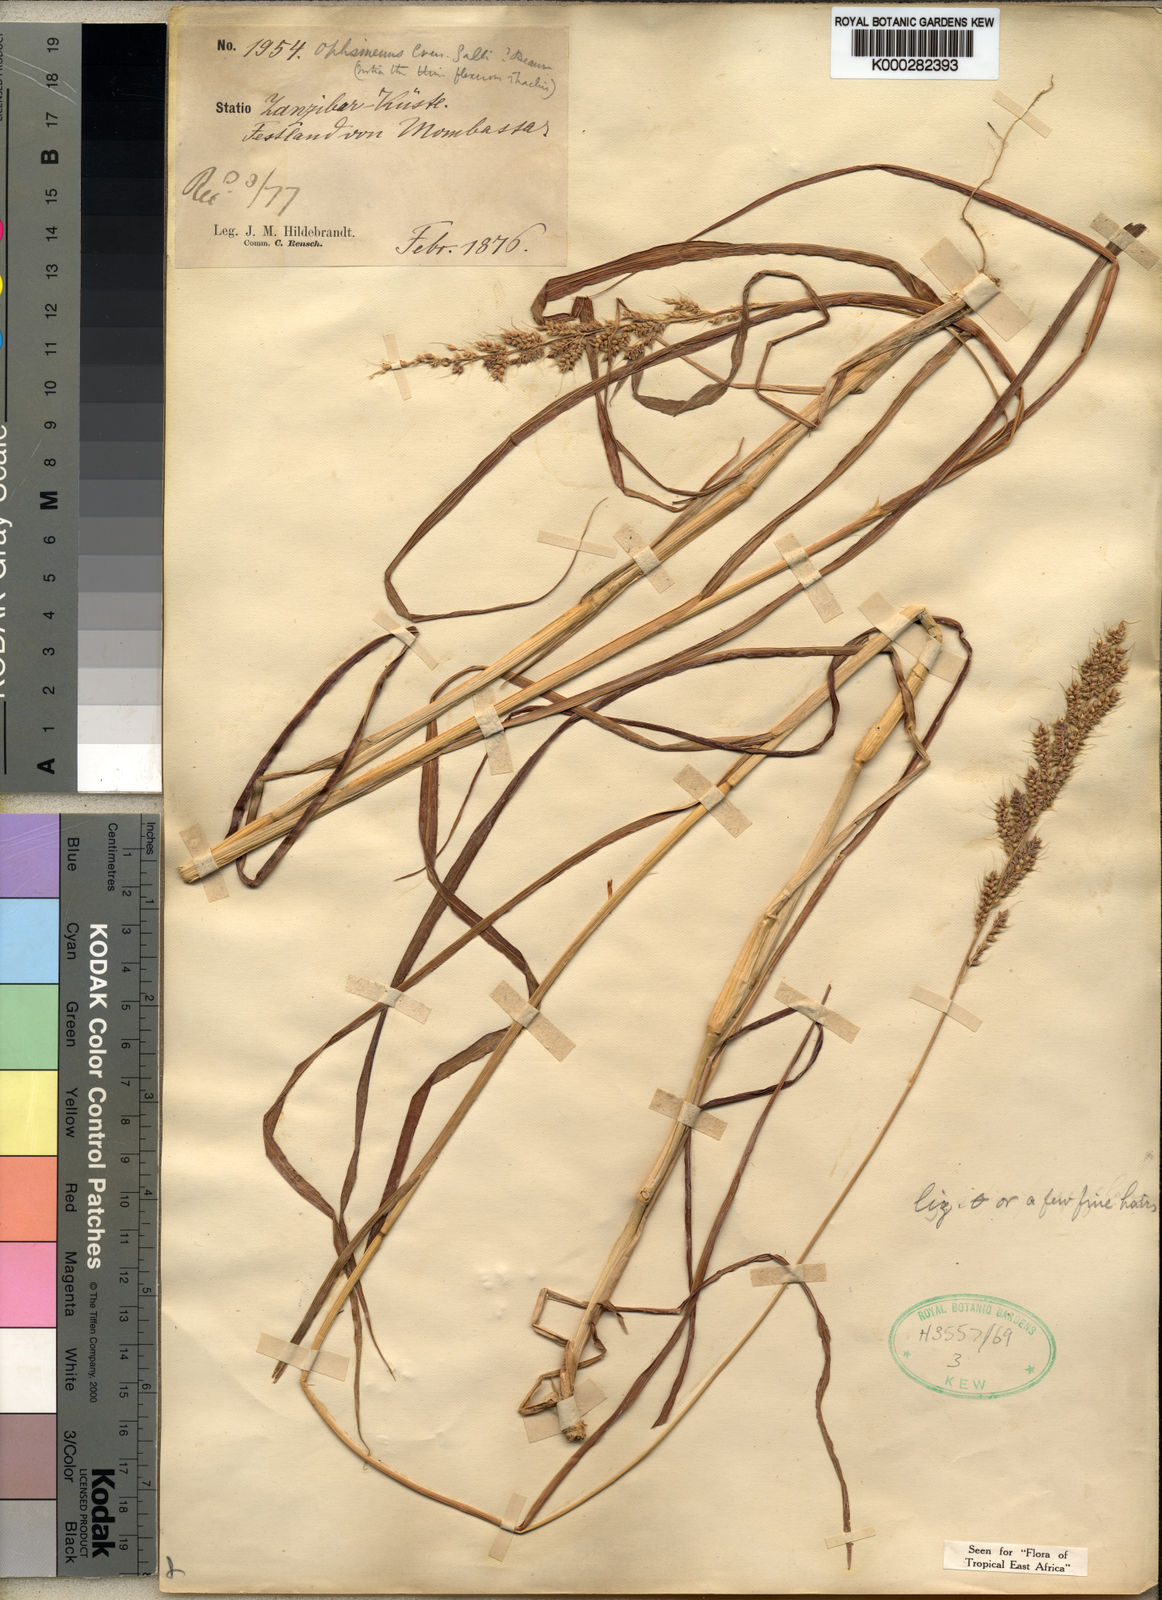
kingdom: Plantae
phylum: Tracheophyta
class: Liliopsida
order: Poales
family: Poaceae
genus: Echinochloa
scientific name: Echinochloa haploclada
